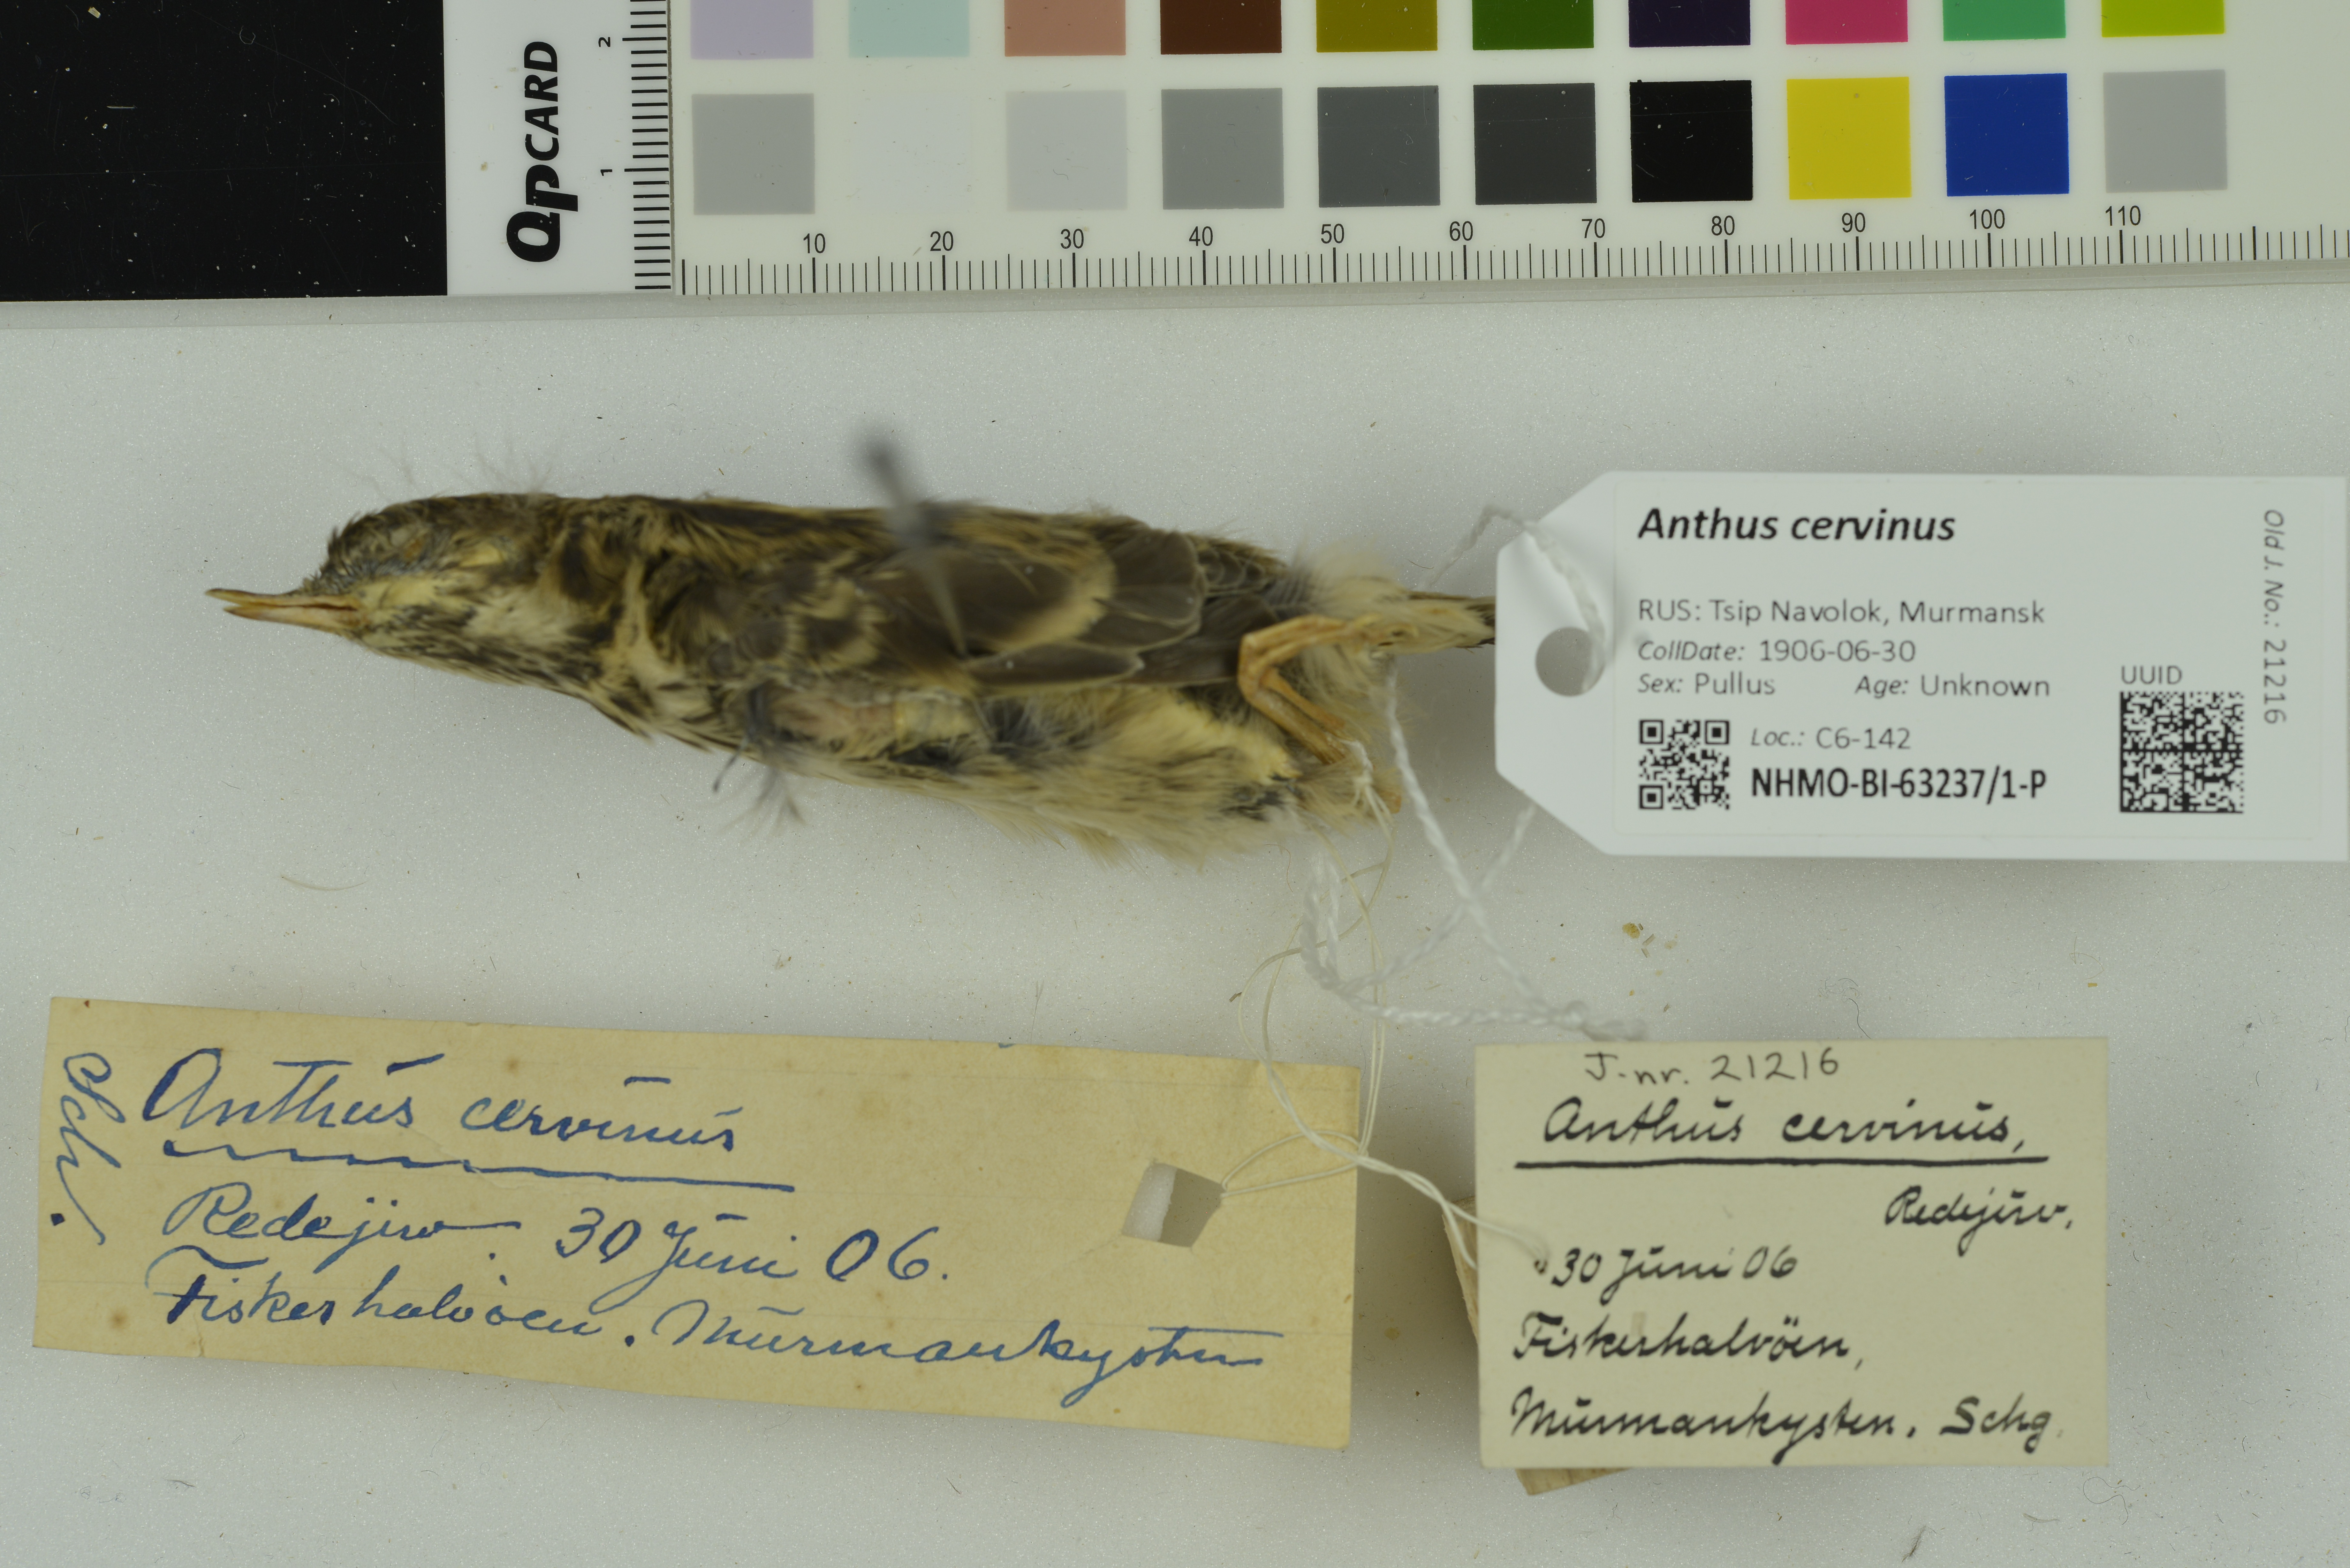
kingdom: Animalia
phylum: Chordata
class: Aves
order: Passeriformes
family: Motacillidae
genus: Anthus
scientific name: Anthus cervinus
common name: Red-throated pipit
